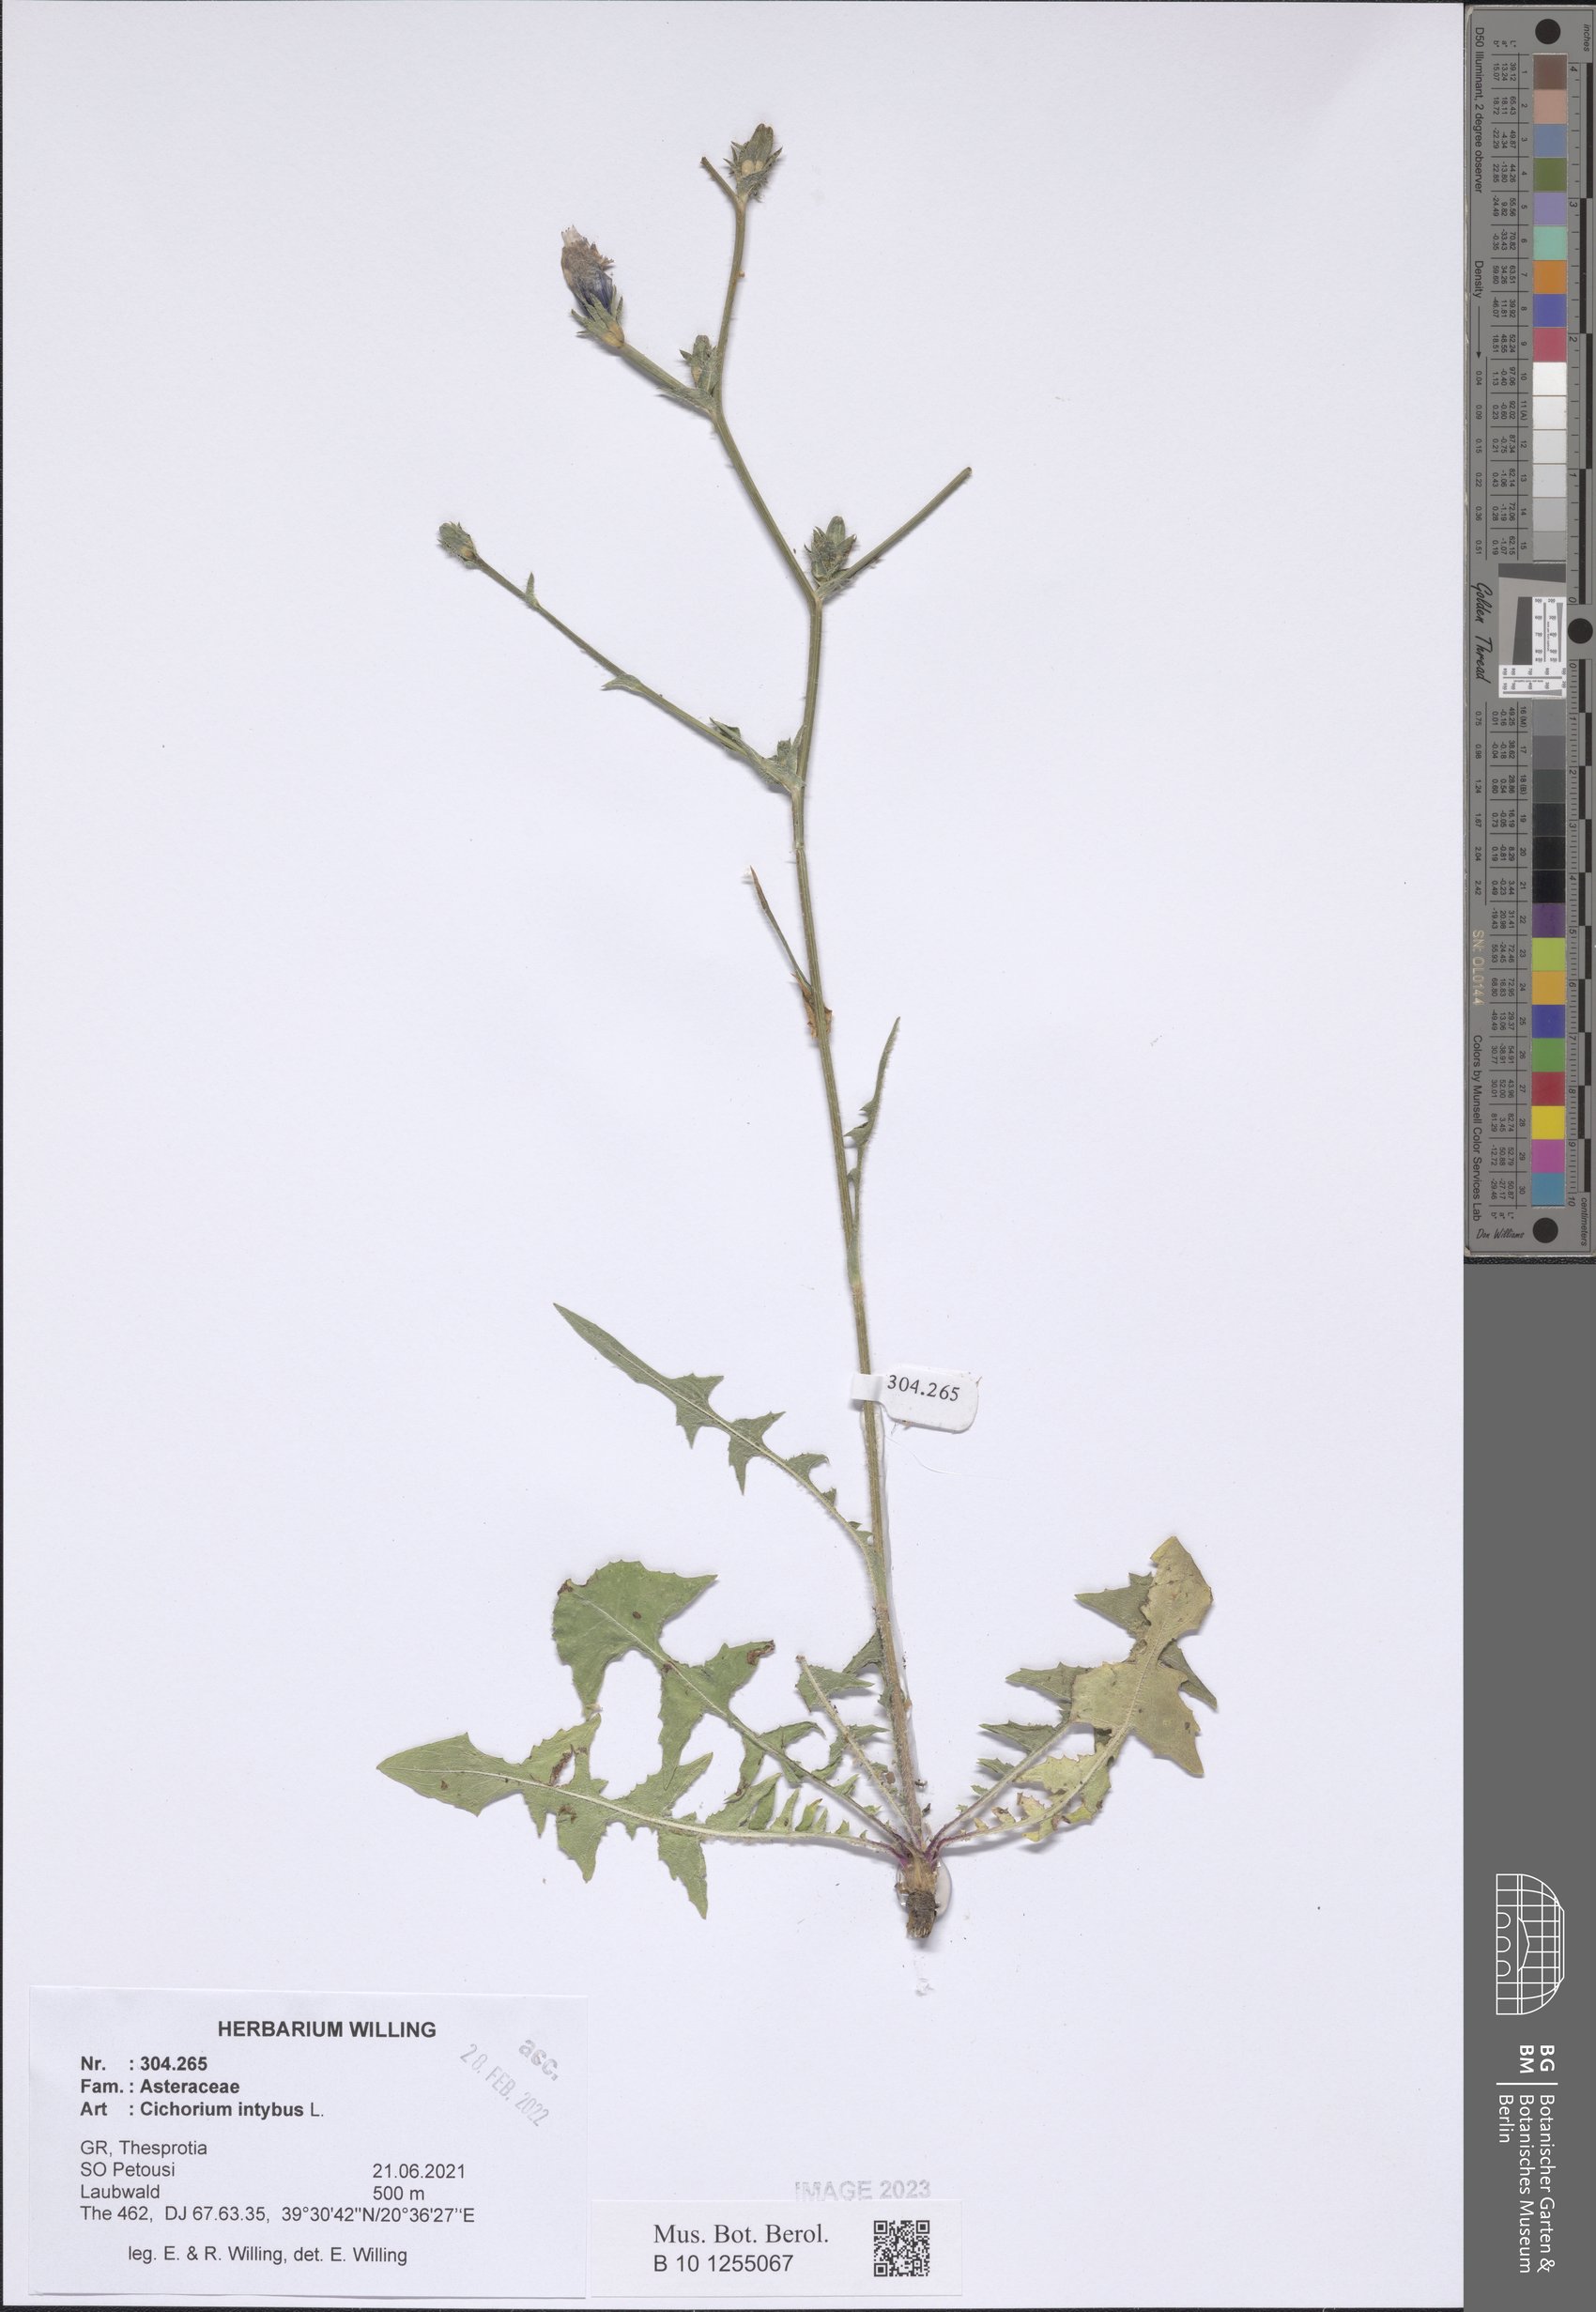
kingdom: Plantae
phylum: Tracheophyta
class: Magnoliopsida
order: Asterales
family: Asteraceae
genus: Cichorium
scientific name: Cichorium intybus
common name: Chicory
